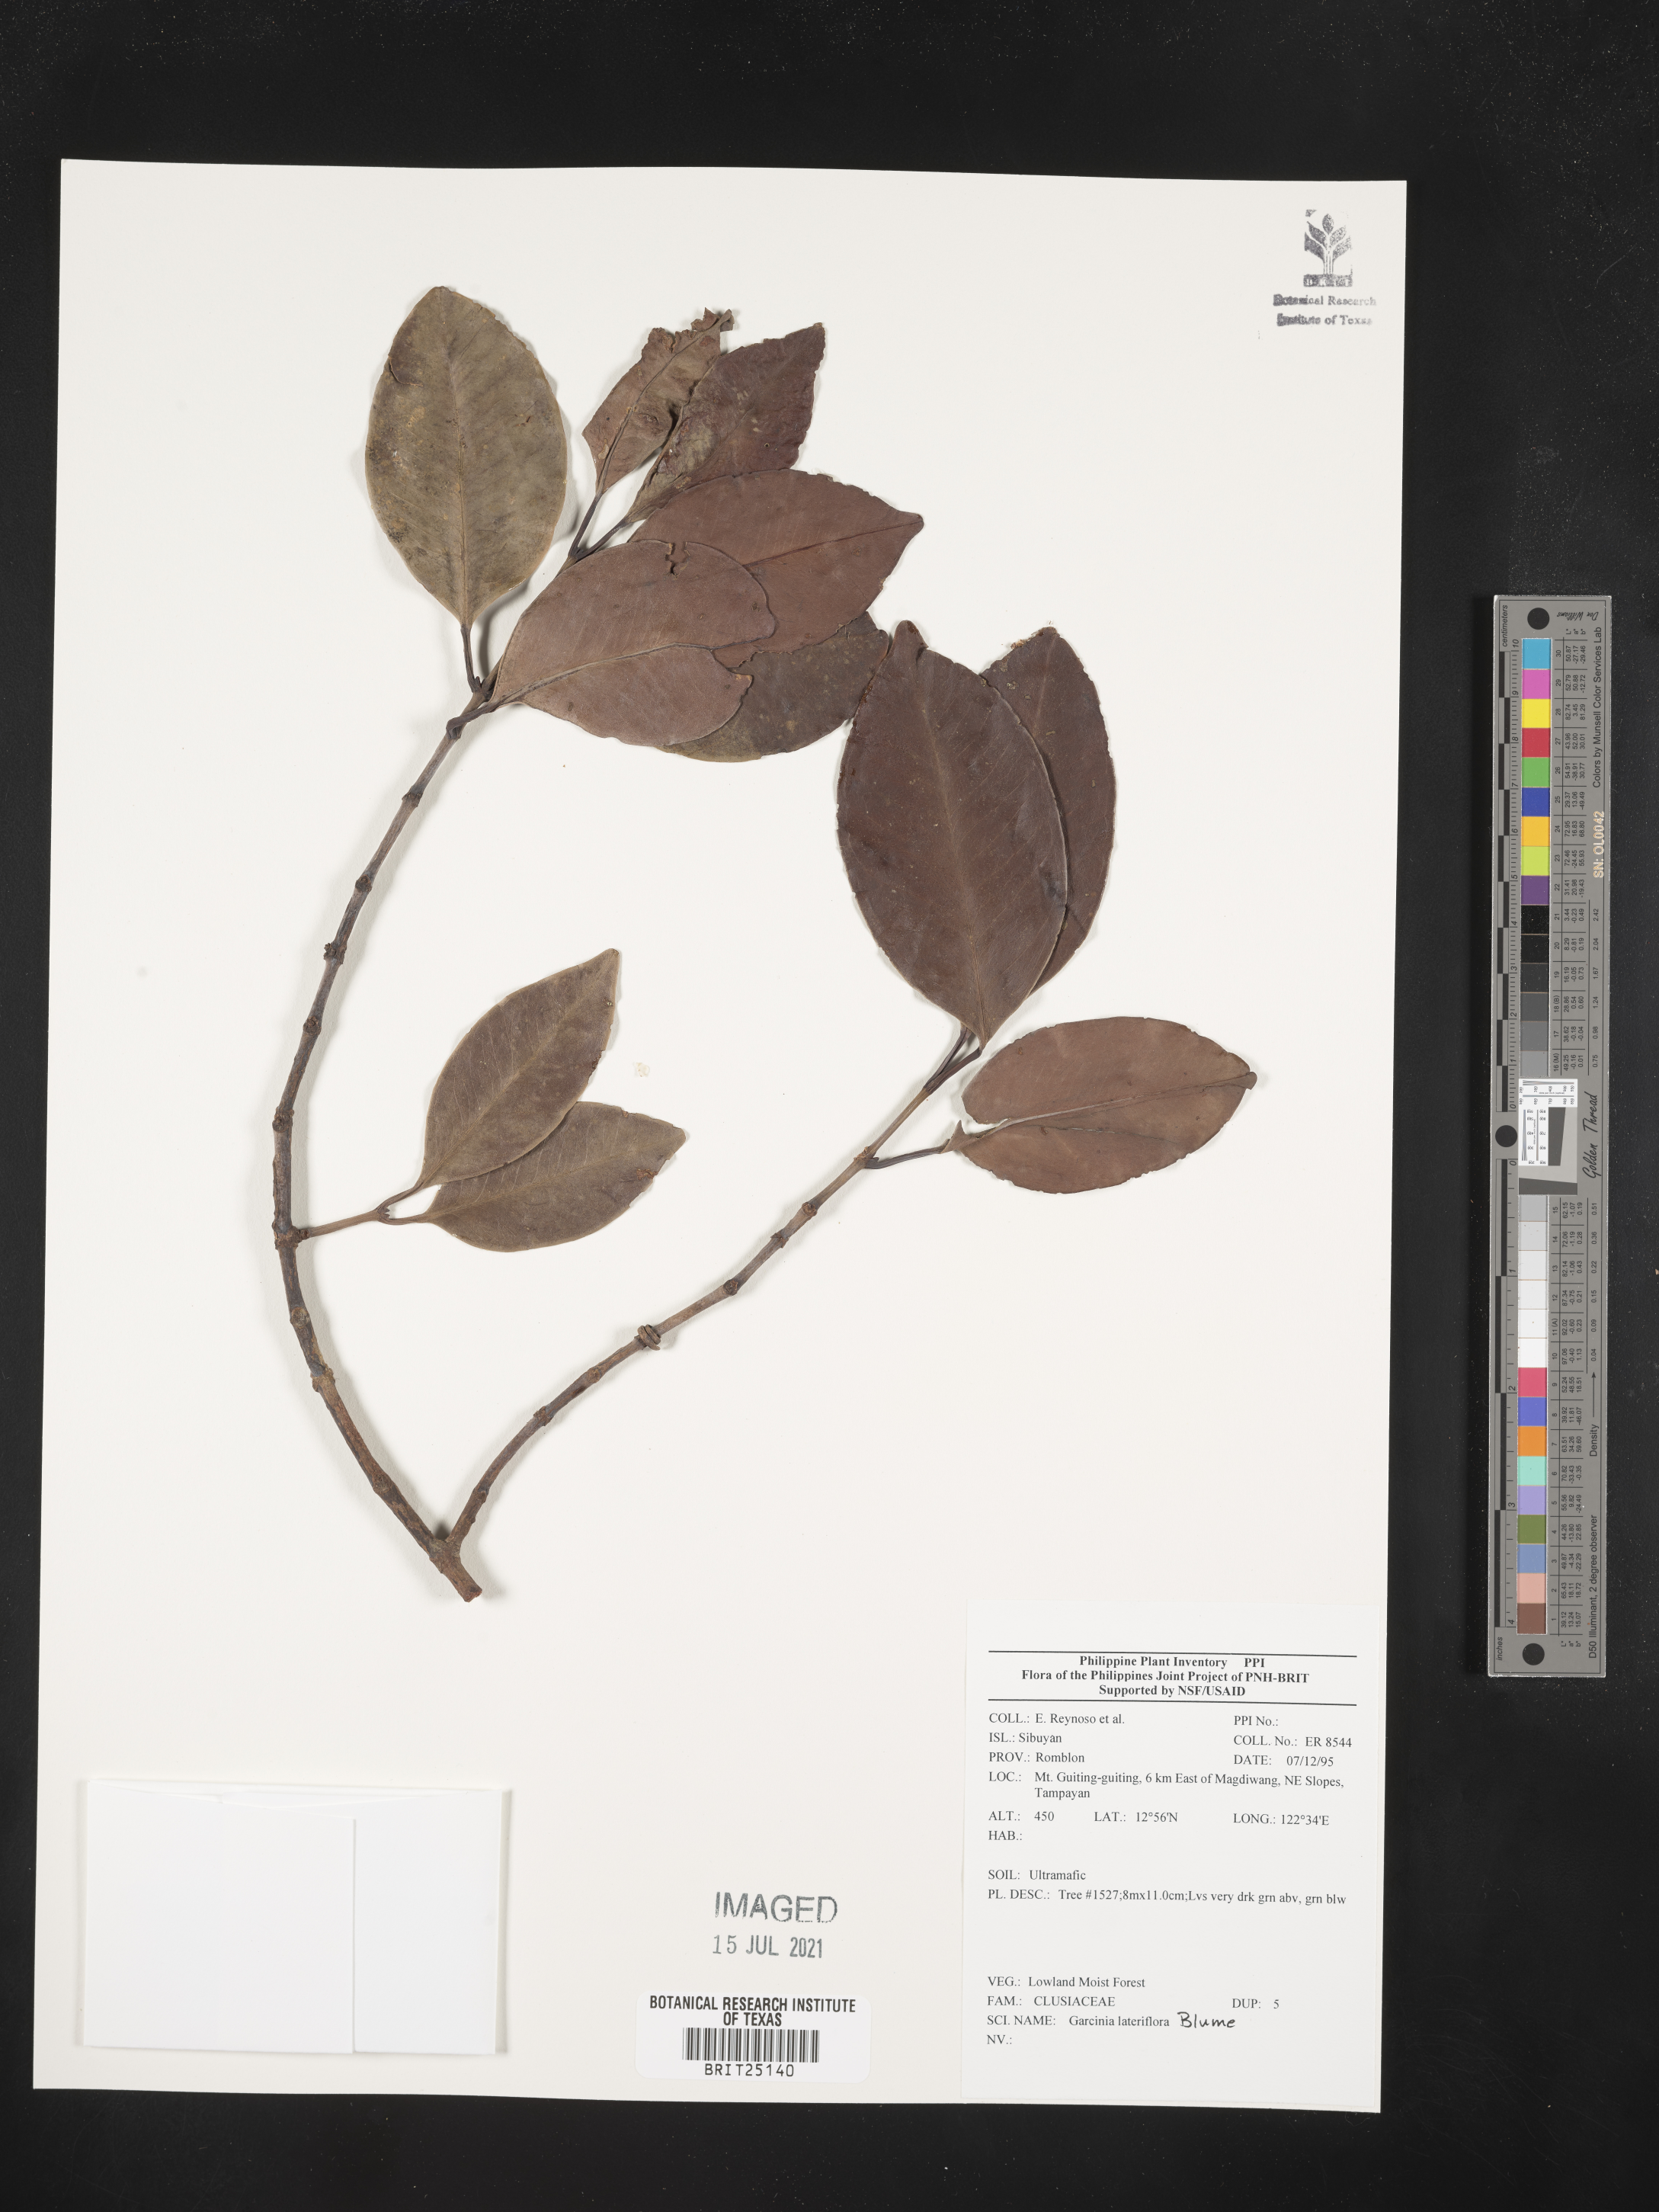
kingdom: Plantae
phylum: Tracheophyta
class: Magnoliopsida
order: Malpighiales
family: Clusiaceae
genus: Garcinia
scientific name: Garcinia lateriflora
